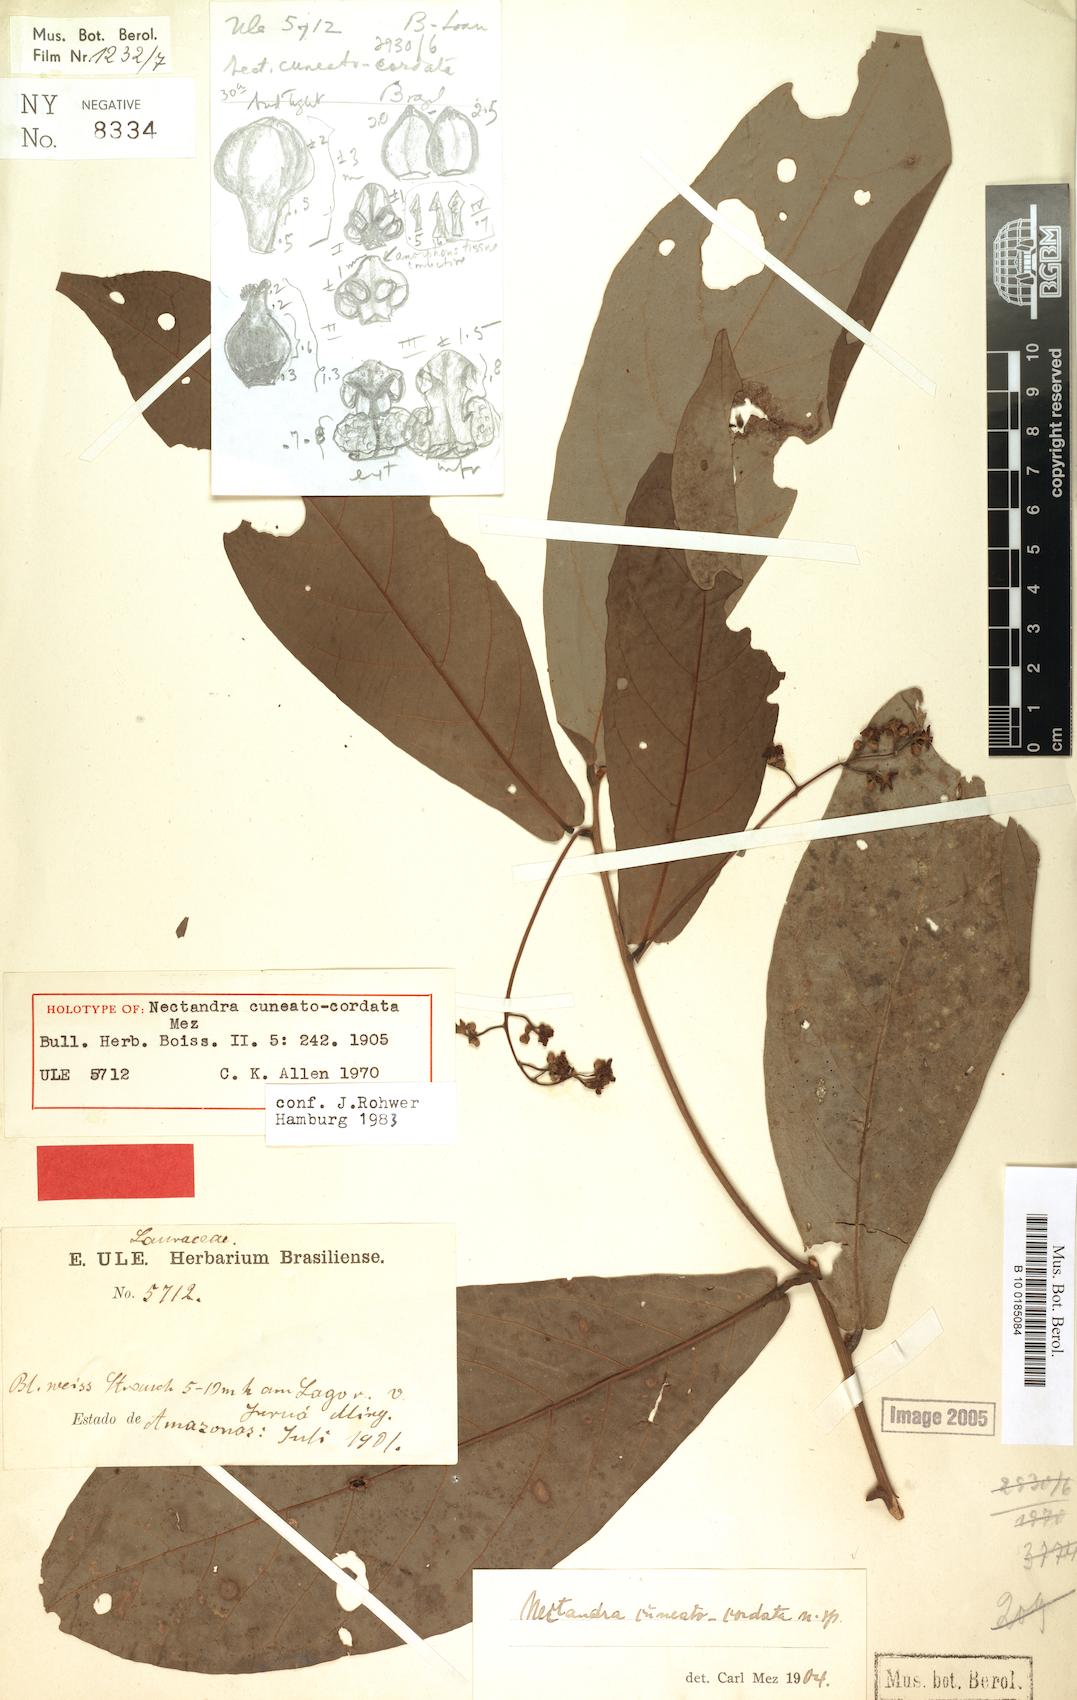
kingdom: Plantae
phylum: Tracheophyta
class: Magnoliopsida
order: Laurales
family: Lauraceae
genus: Nectandra
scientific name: Nectandra cuneatocordata
